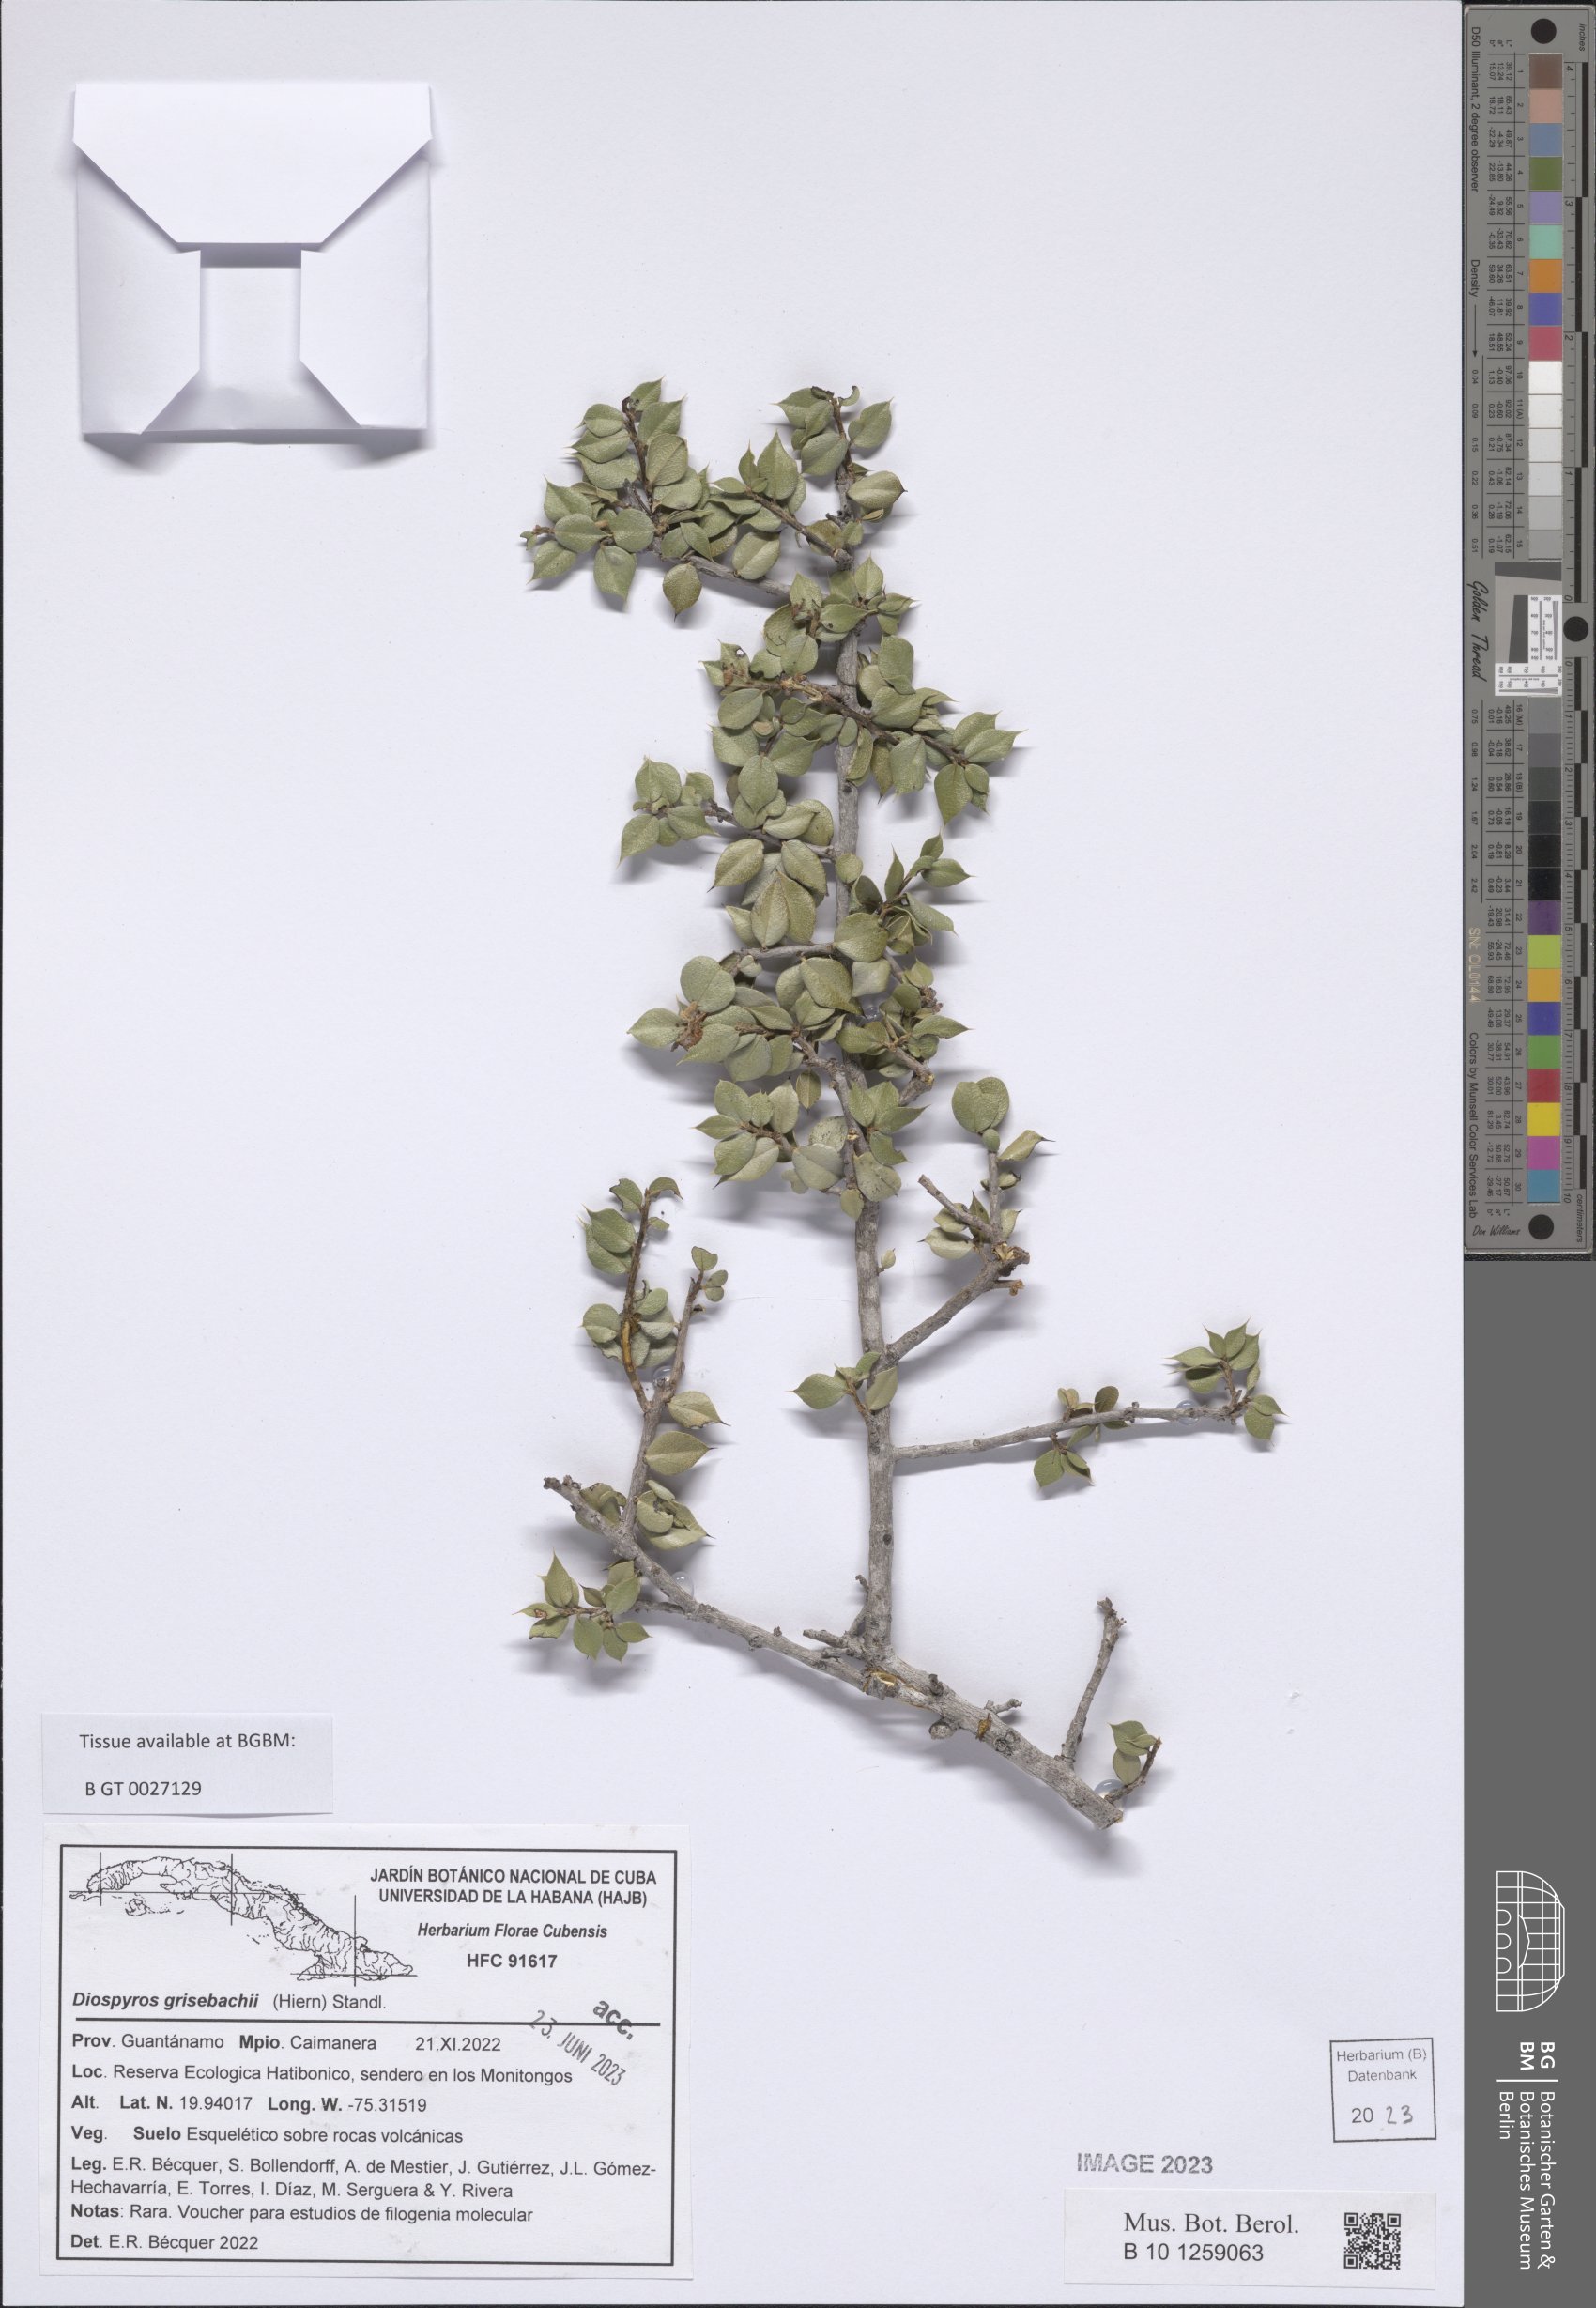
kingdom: Plantae
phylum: Tracheophyta
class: Magnoliopsida
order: Ericales
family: Ebenaceae
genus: Diospyros
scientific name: Diospyros grisebachii
